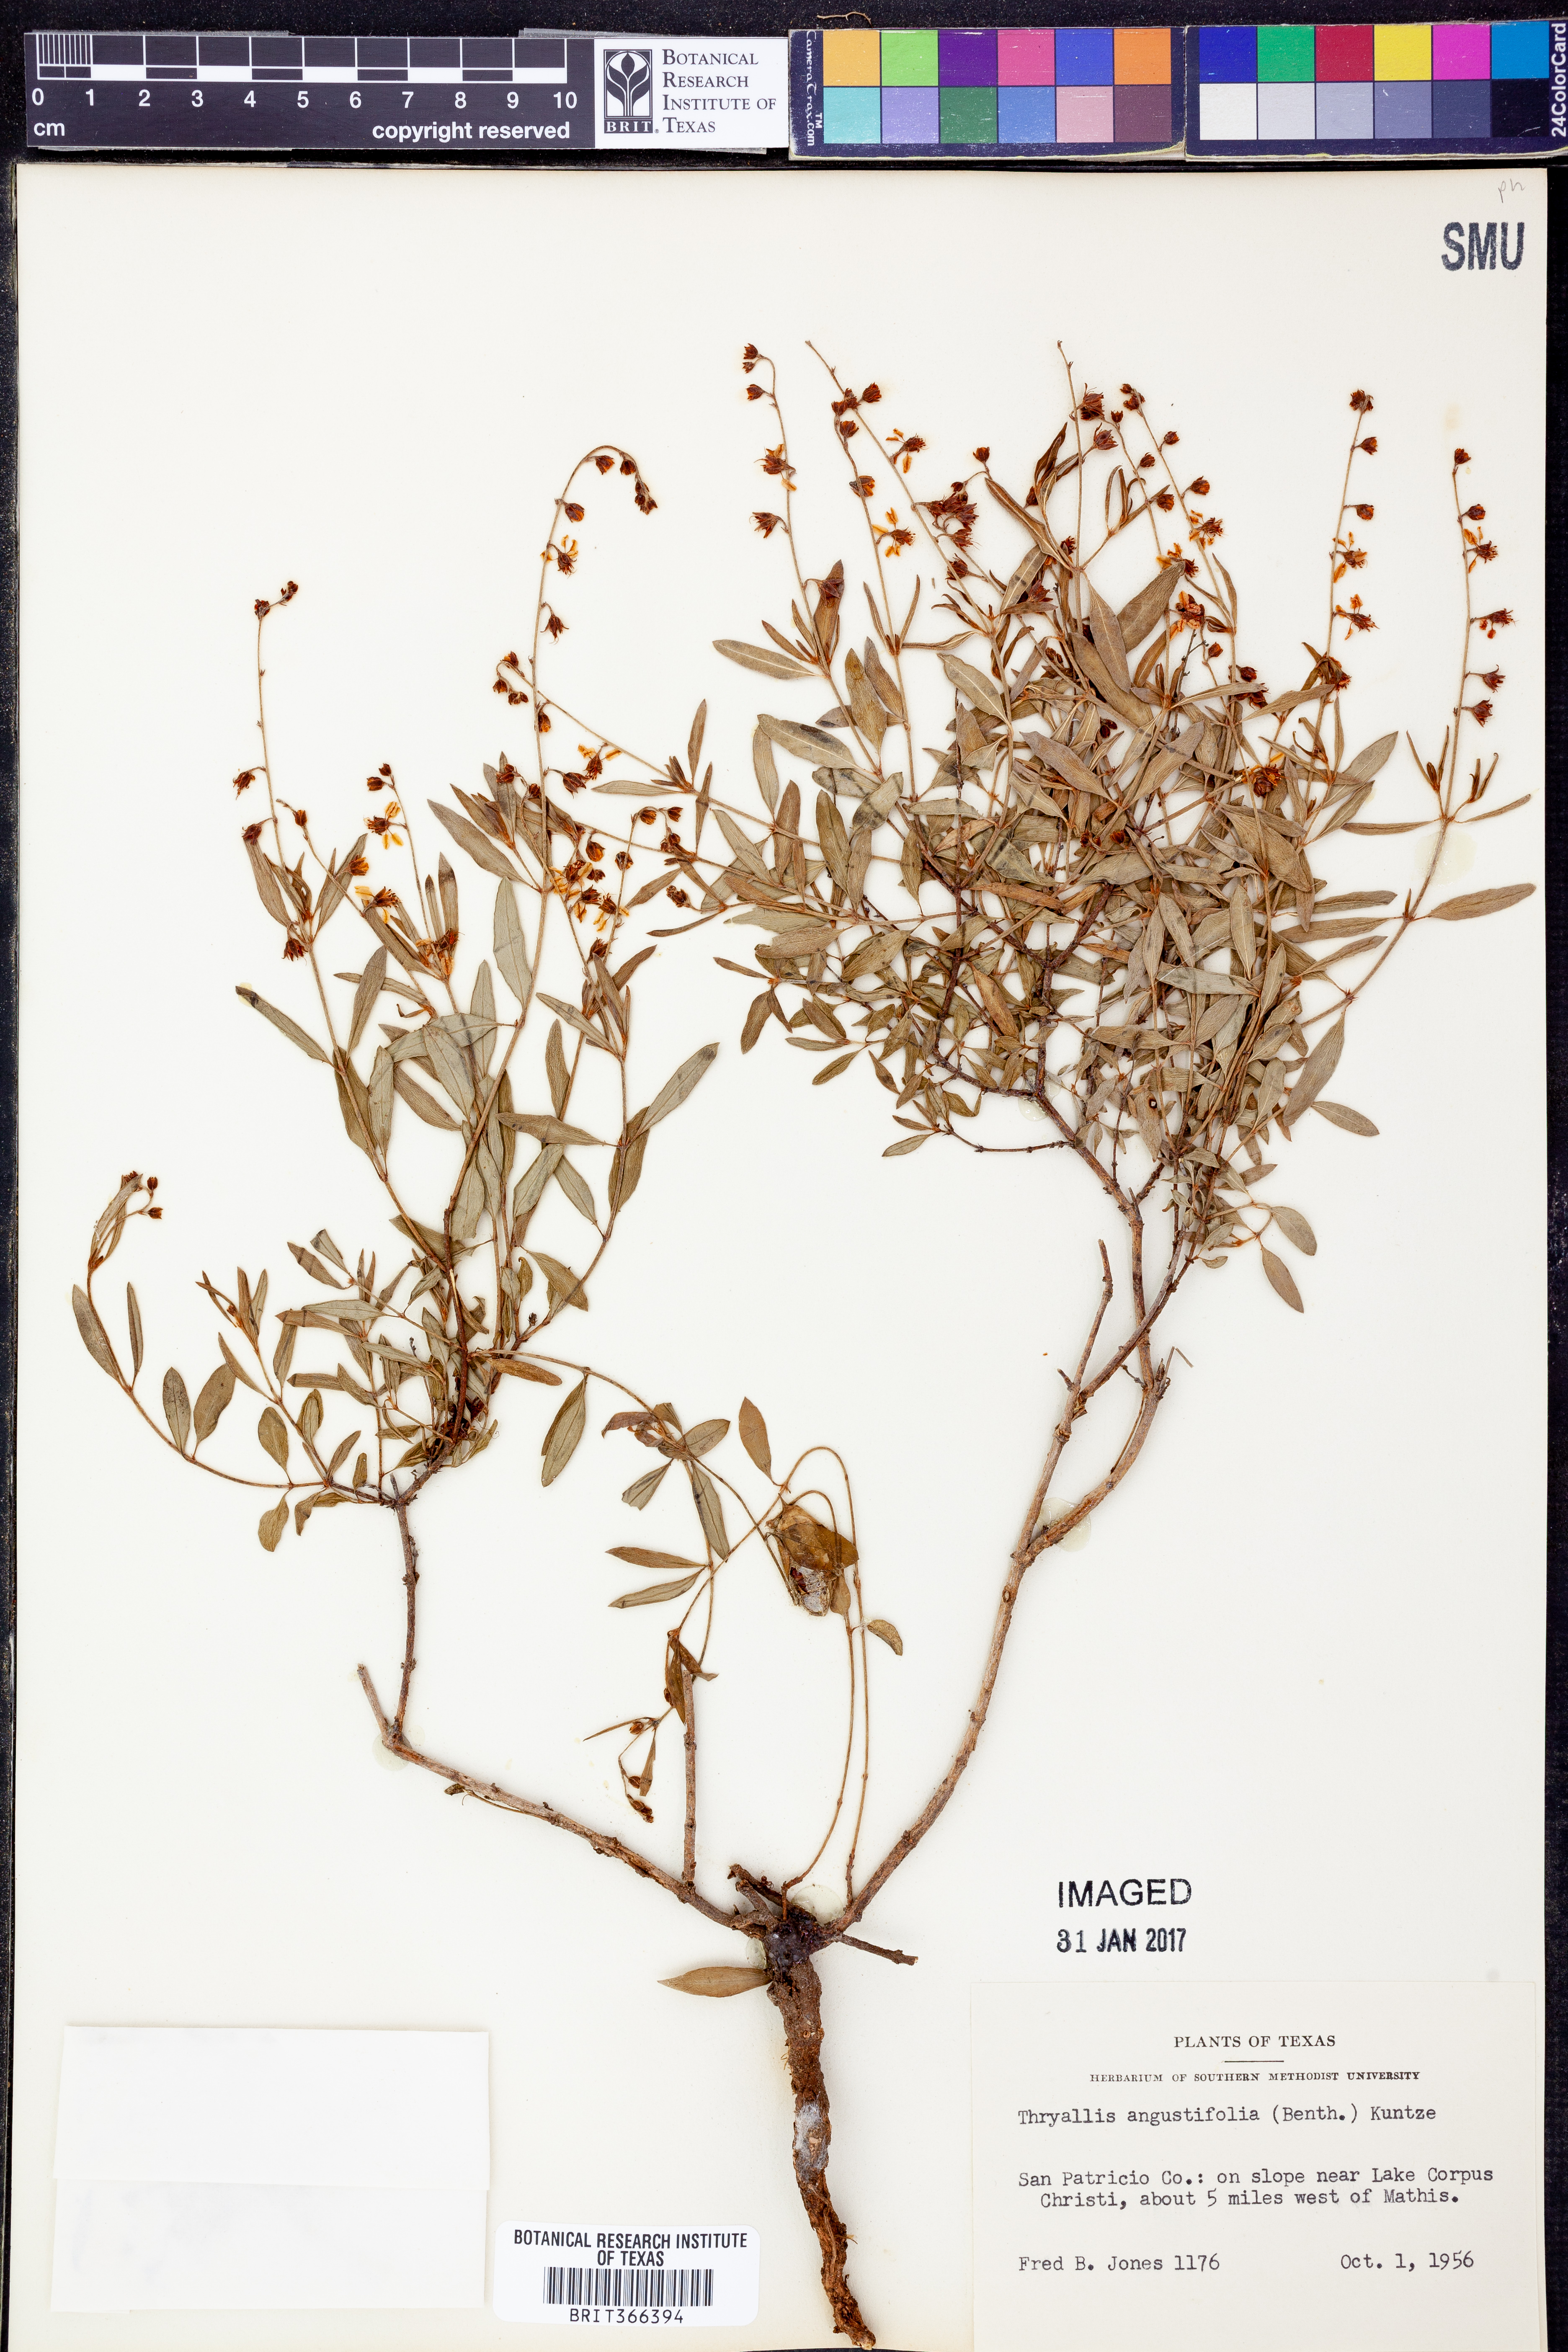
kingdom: Plantae
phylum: Tracheophyta
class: Magnoliopsida
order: Malpighiales
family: Malpighiaceae
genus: Galphimia
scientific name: Galphimia angustifolia
